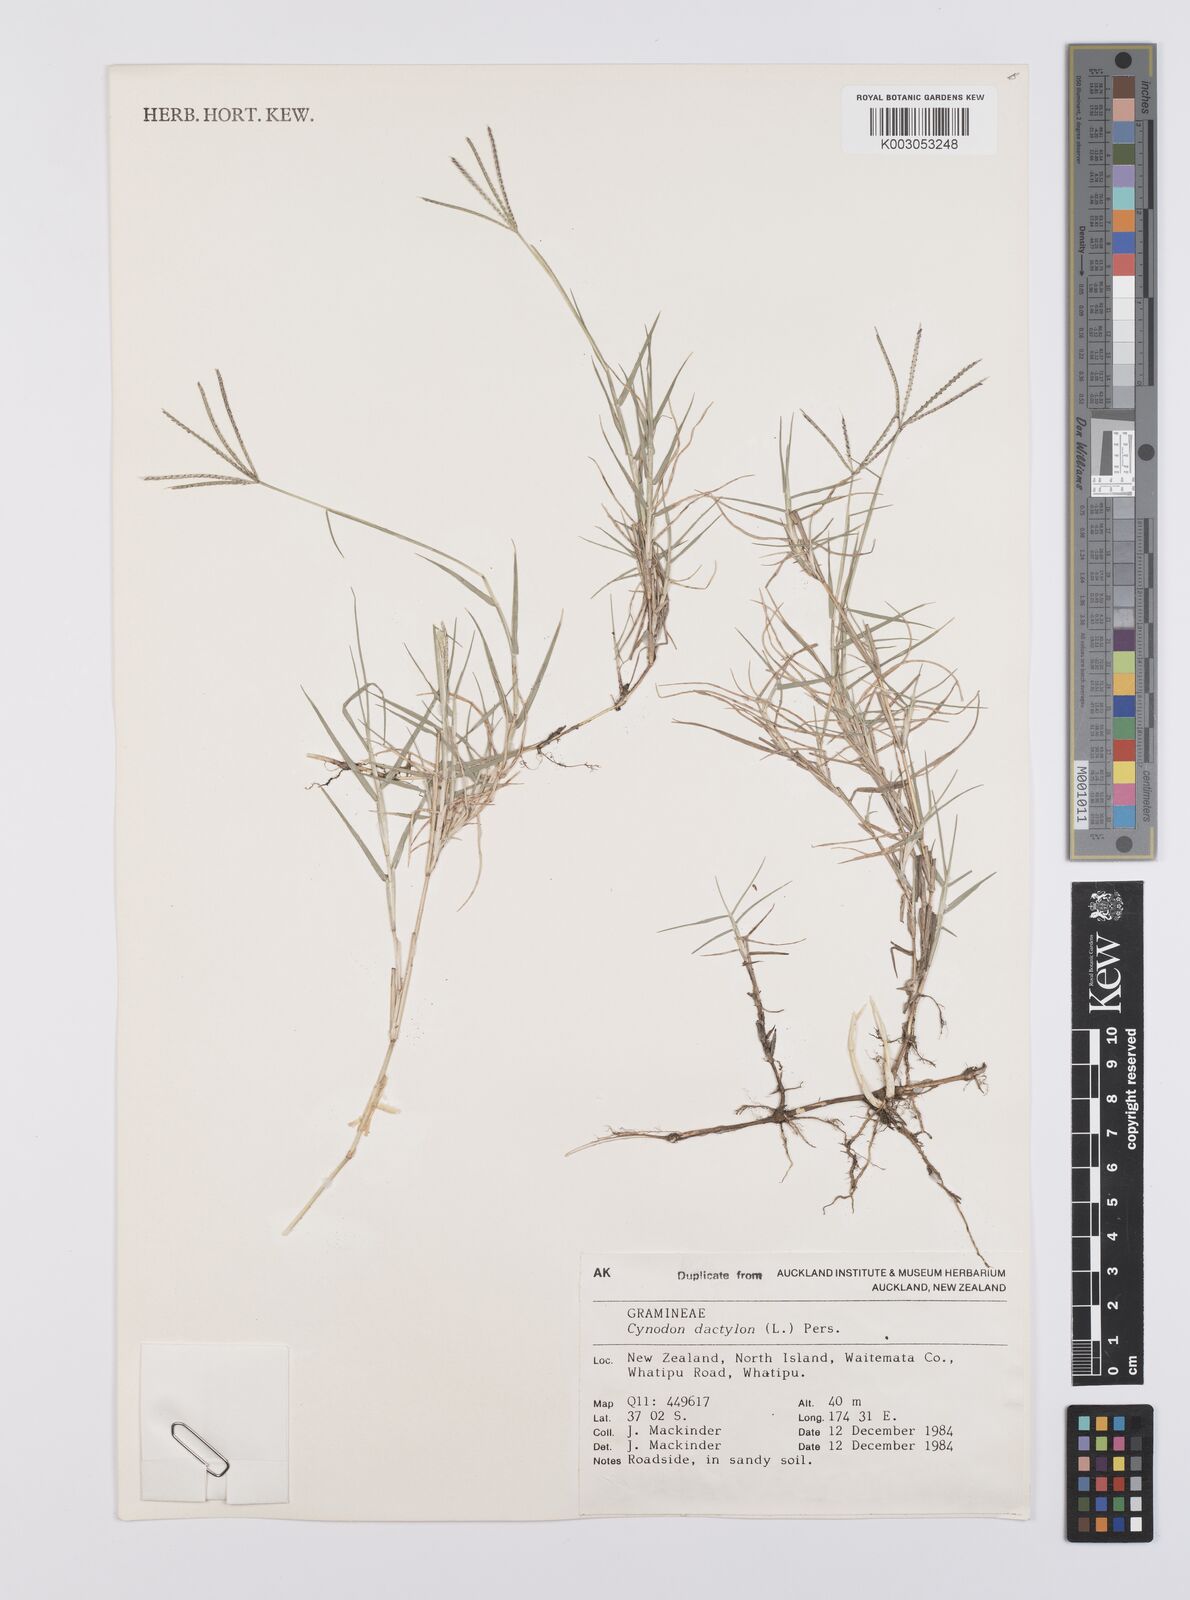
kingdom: Plantae
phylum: Tracheophyta
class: Liliopsida
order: Poales
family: Poaceae
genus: Cynodon
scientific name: Cynodon dactylon
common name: Bermuda grass
